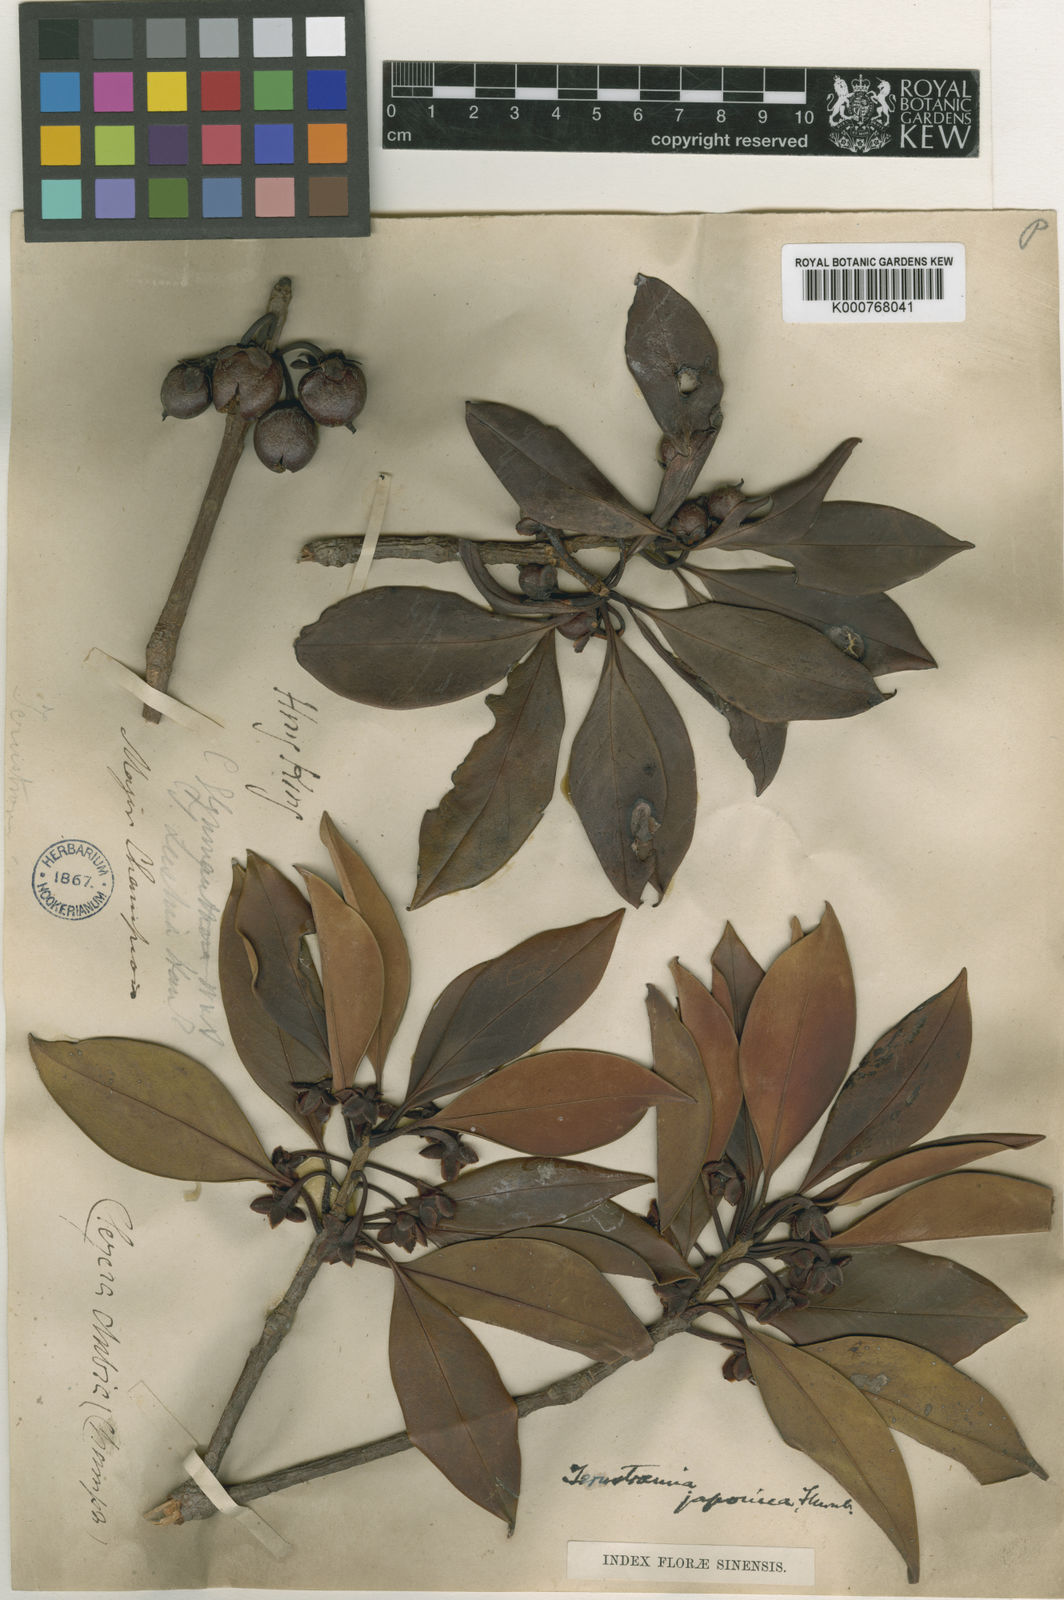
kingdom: Plantae
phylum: Tracheophyta
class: Magnoliopsida
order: Ericales
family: Pentaphylacaceae
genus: Ternstroemia
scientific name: Ternstroemia
